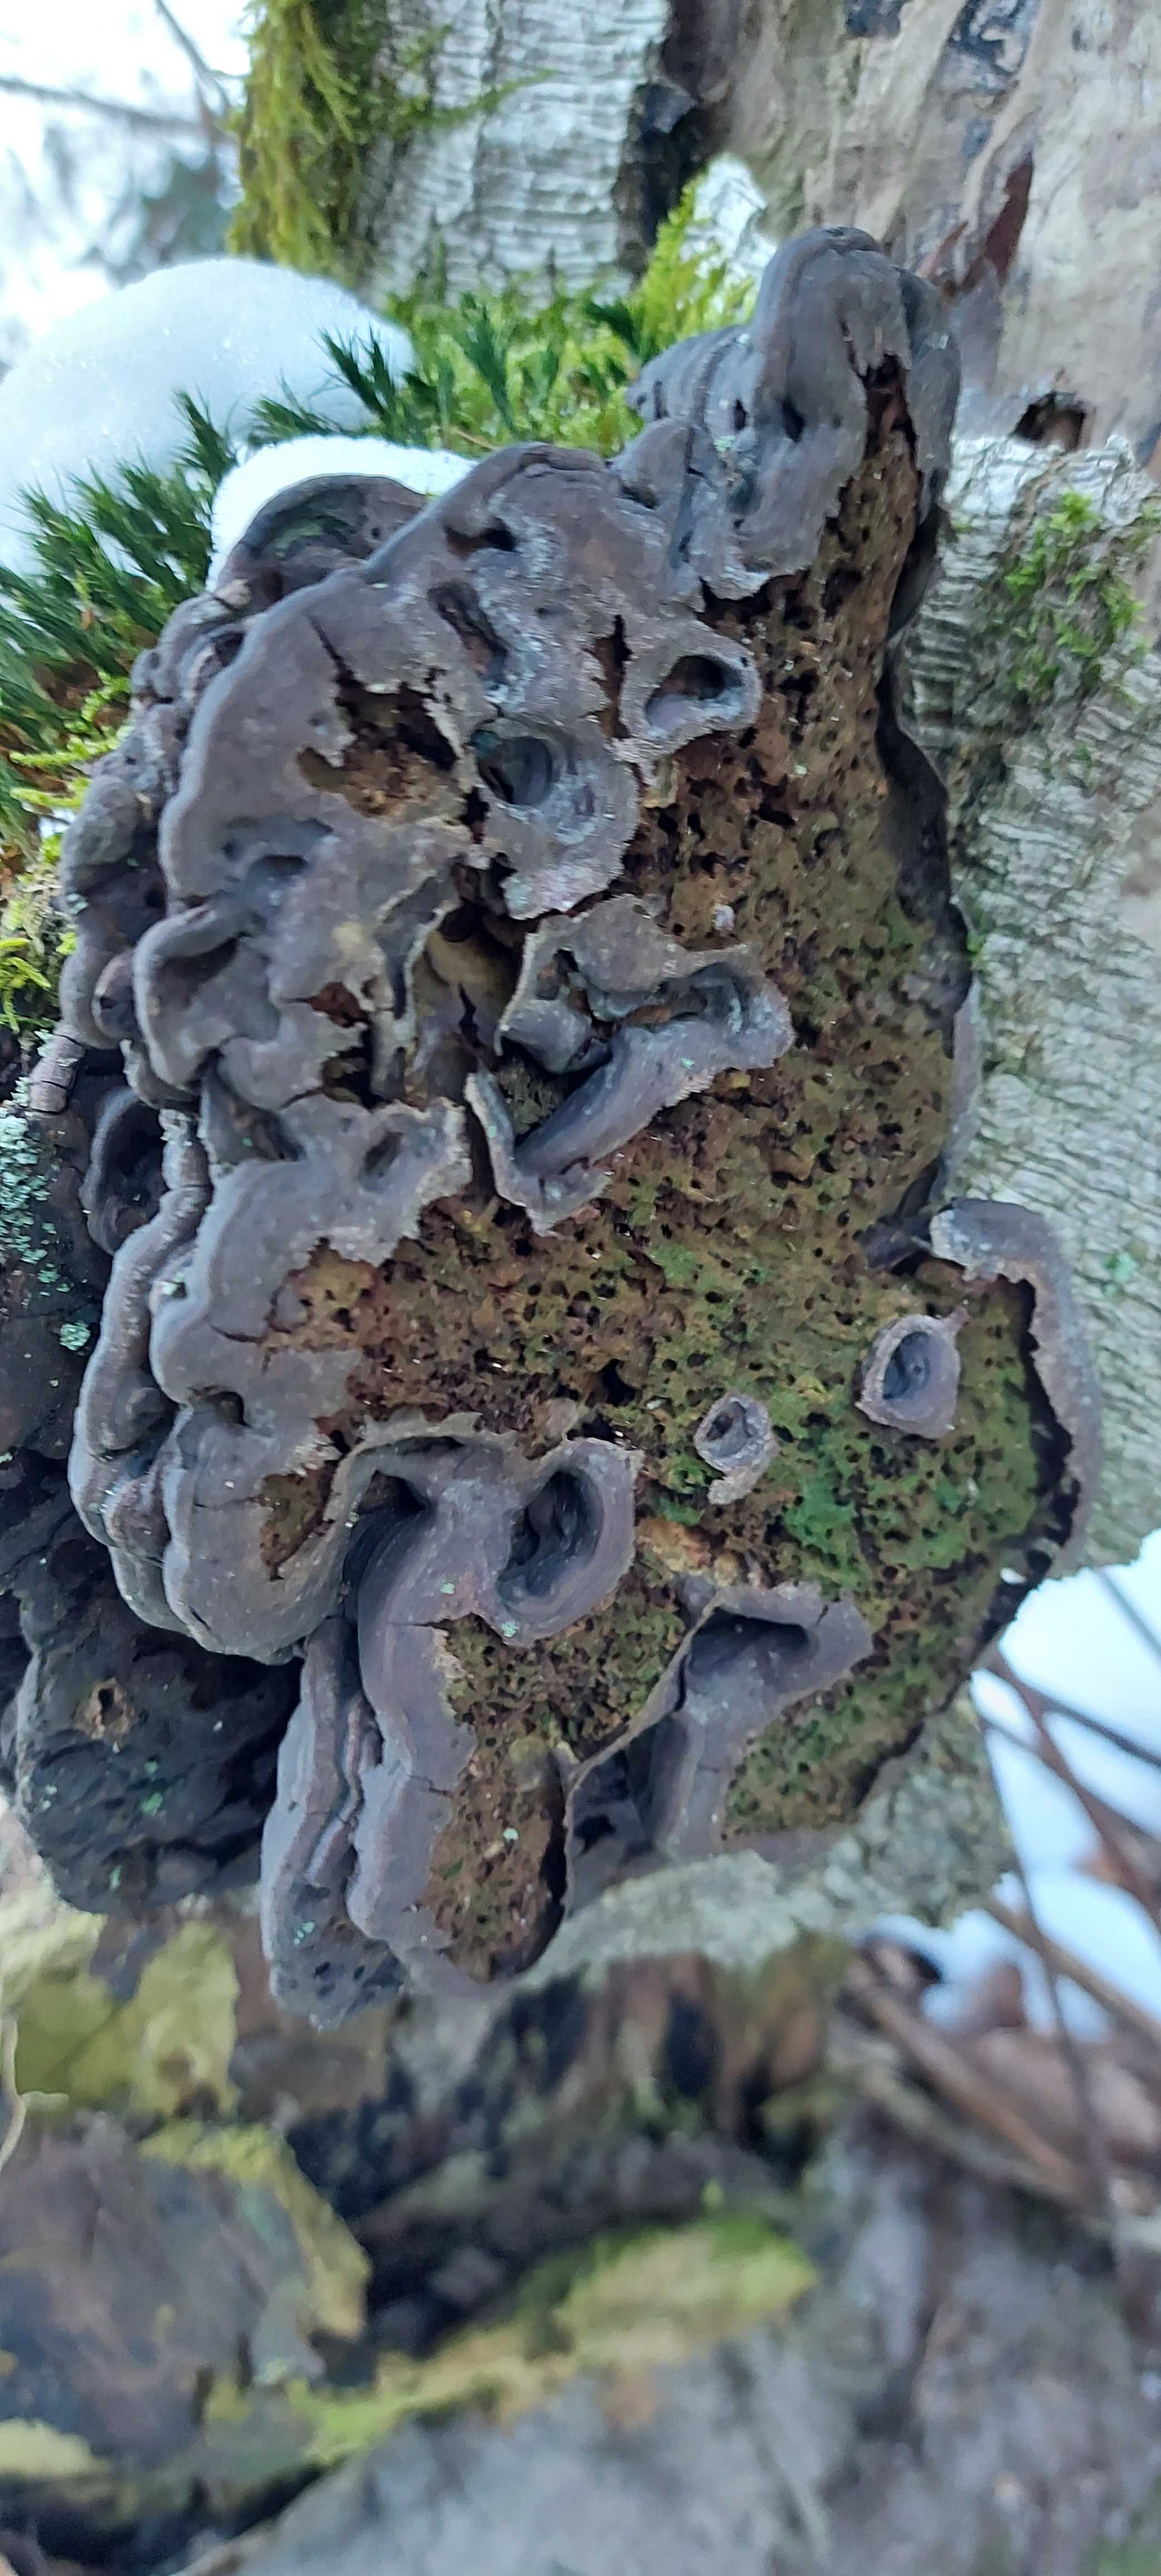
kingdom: Fungi
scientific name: Fungi
